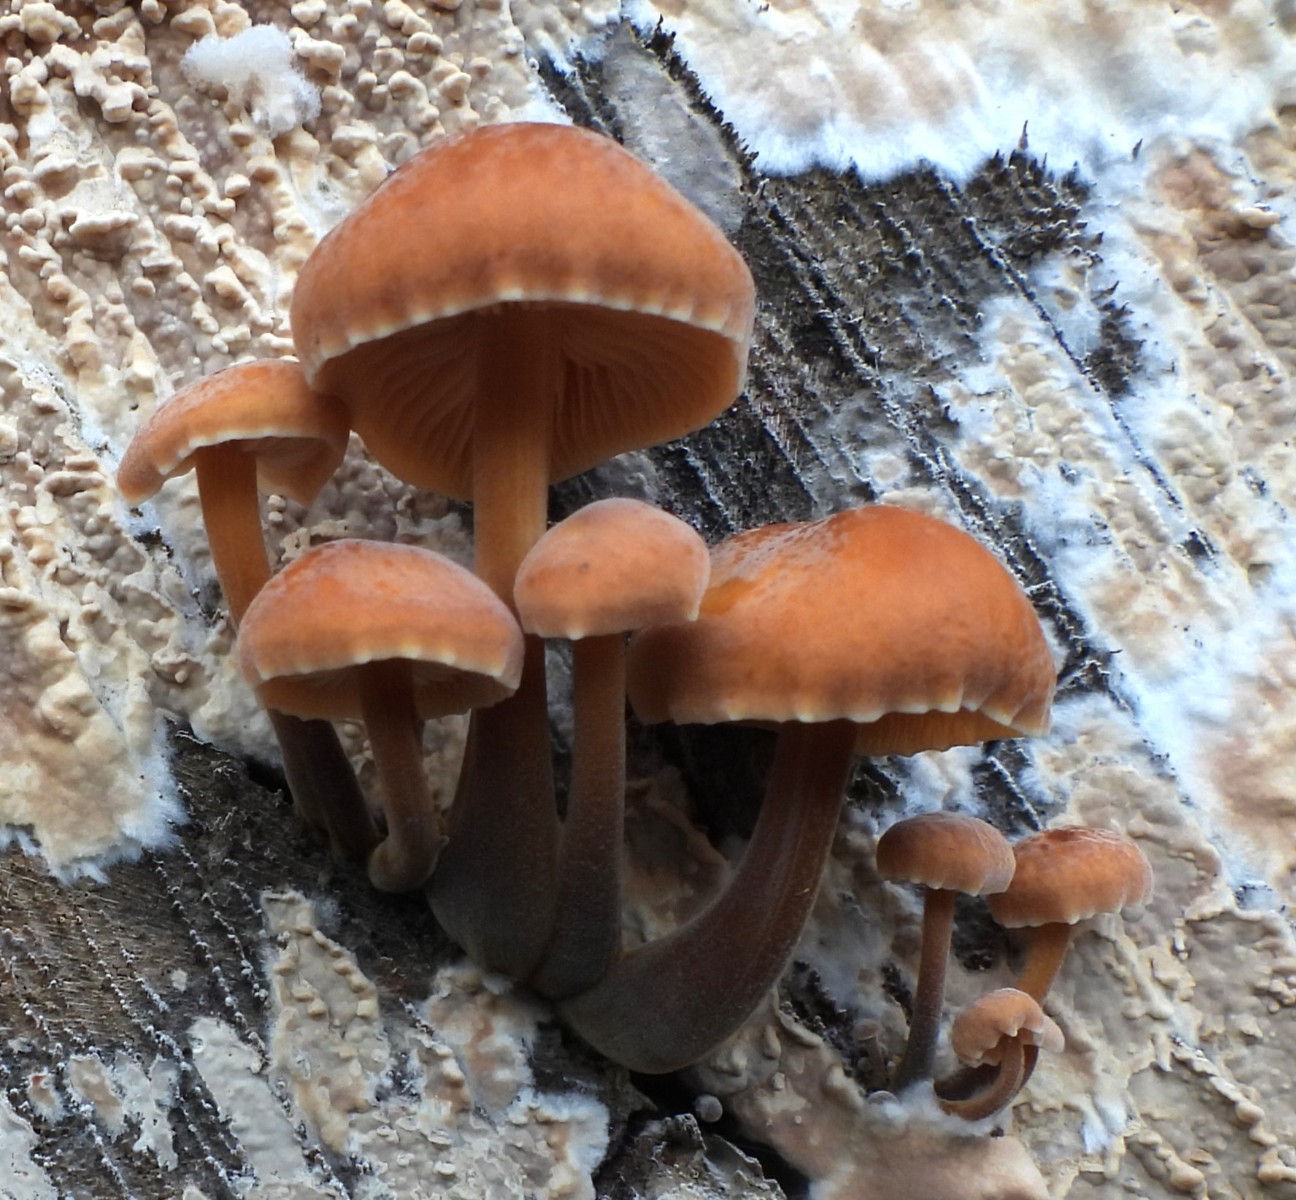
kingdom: Fungi
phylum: Basidiomycota
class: Agaricomycetes
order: Agaricales
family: Physalacriaceae
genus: Flammulina
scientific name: Flammulina velutipes
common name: gul fløjlsfod
